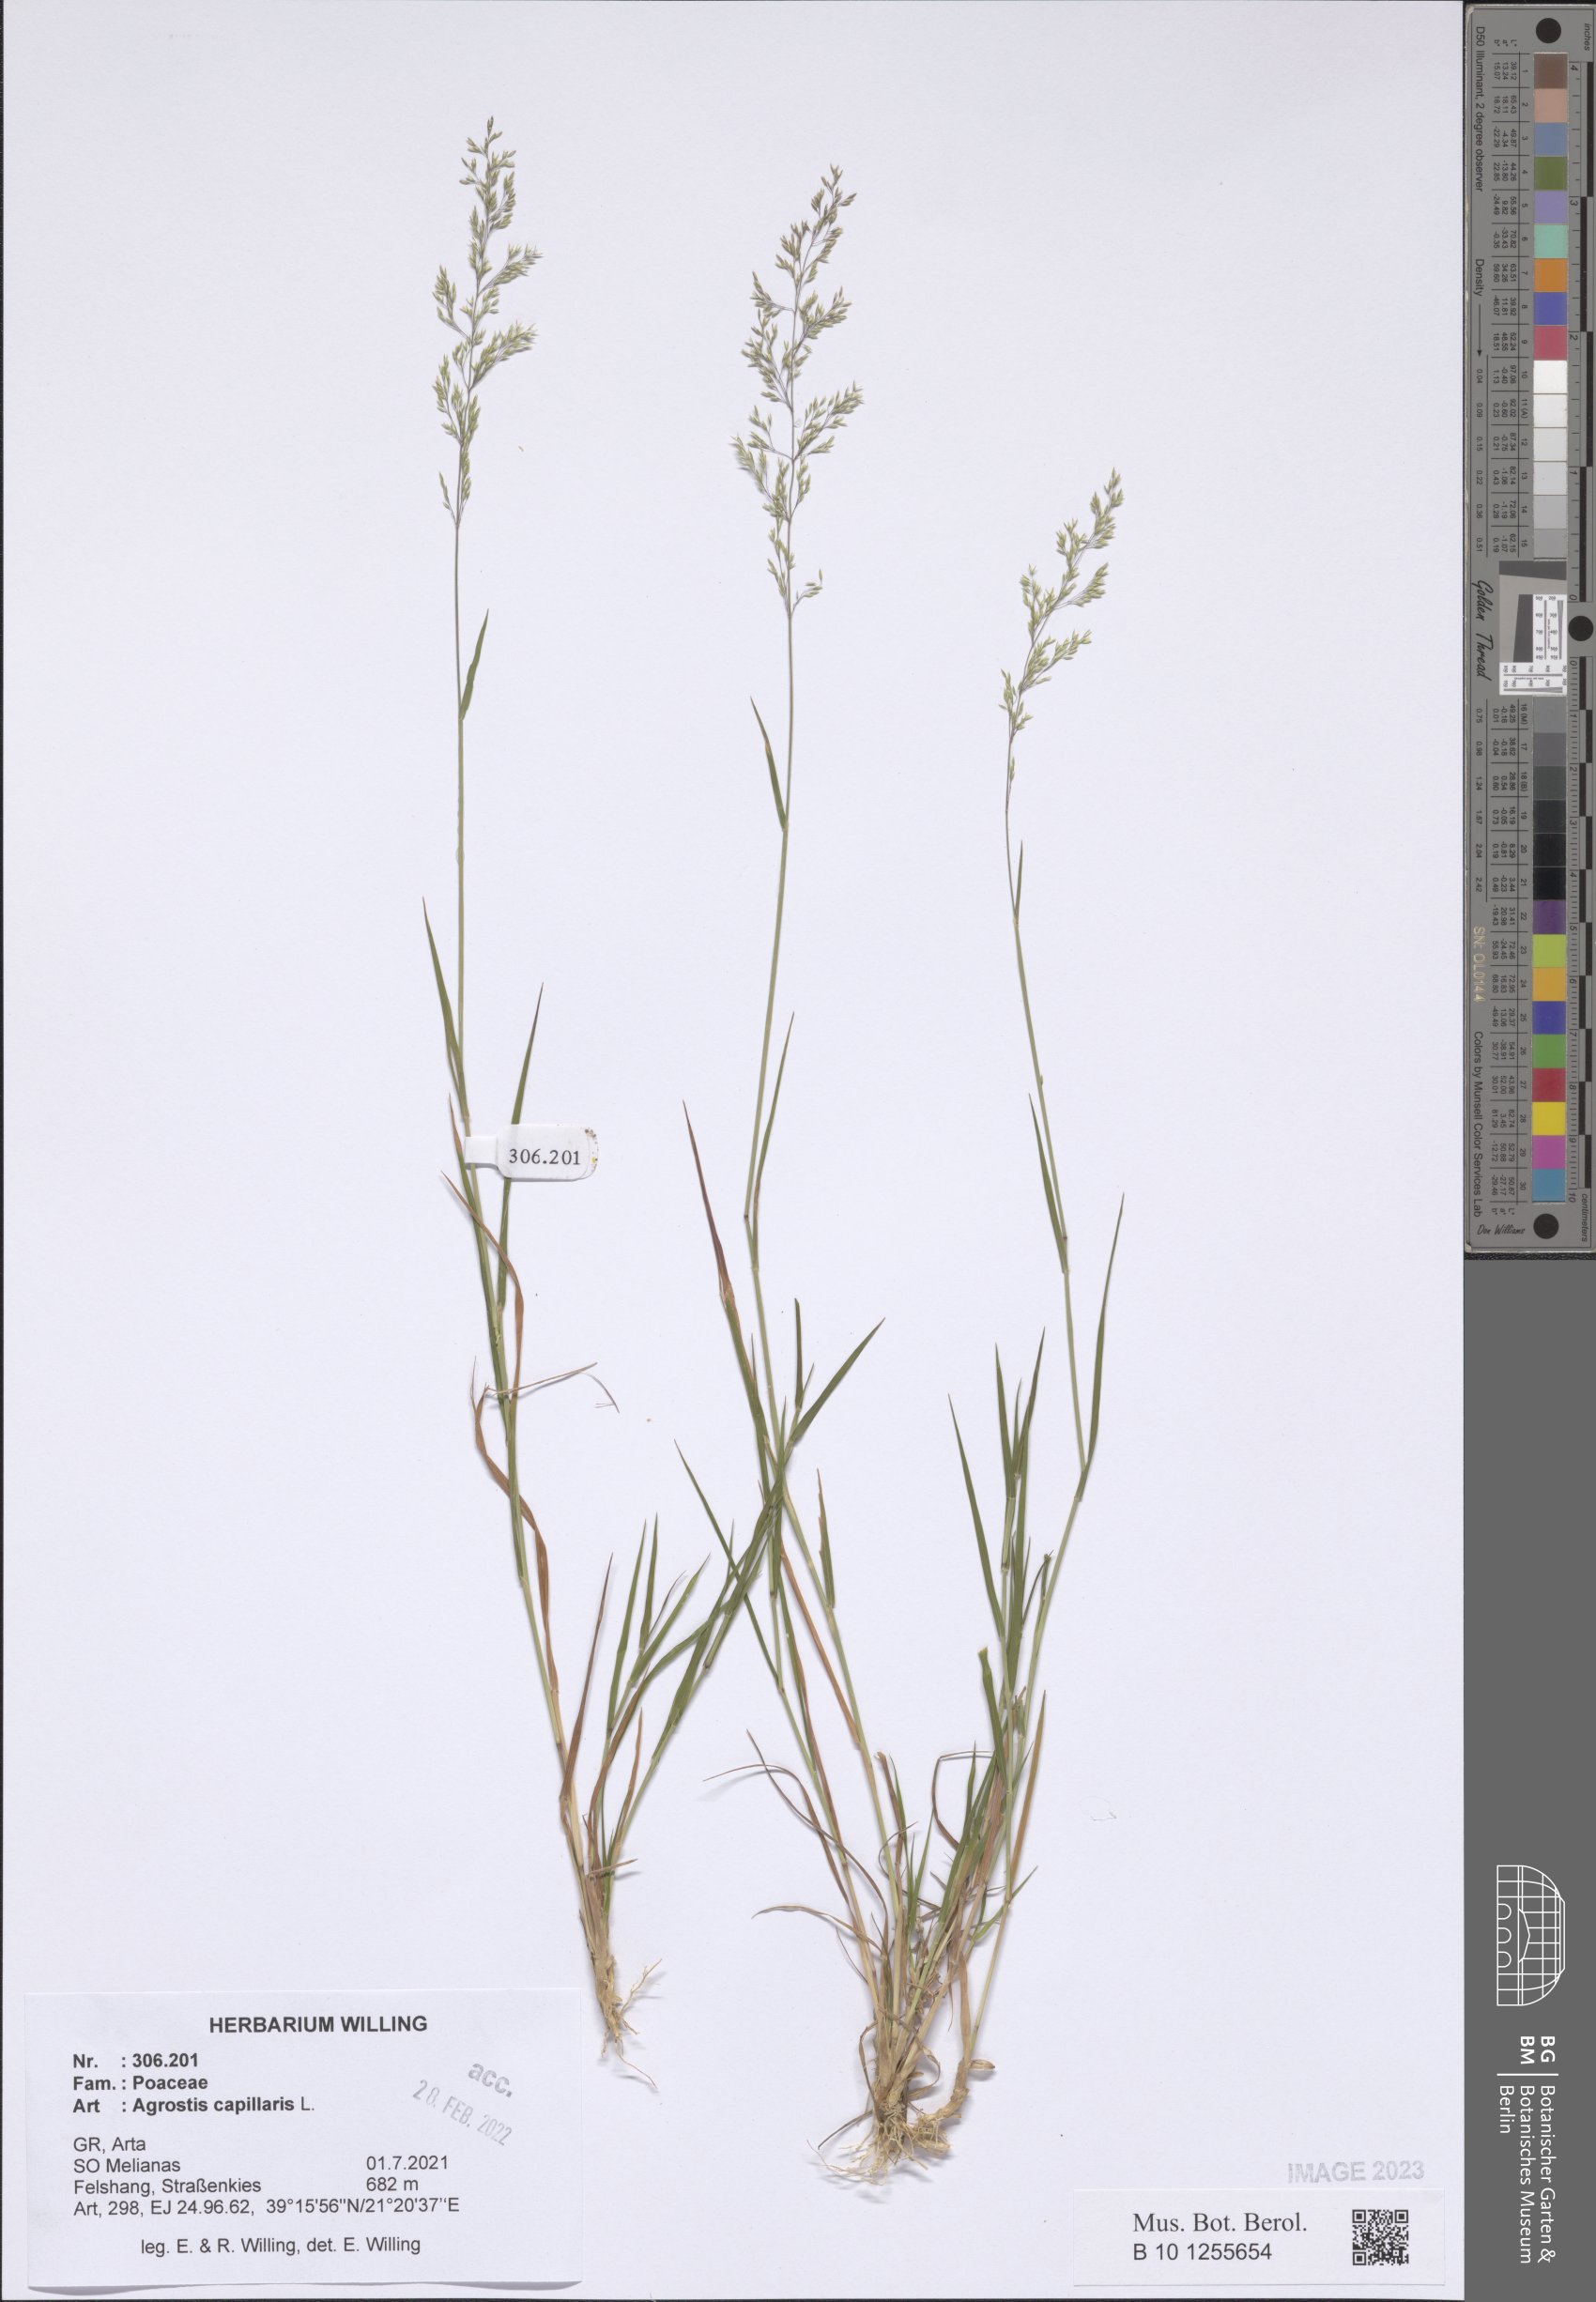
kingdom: Plantae
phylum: Tracheophyta
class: Liliopsida
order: Poales
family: Poaceae
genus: Agrostis
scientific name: Agrostis capillaris
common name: Colonial bentgrass
